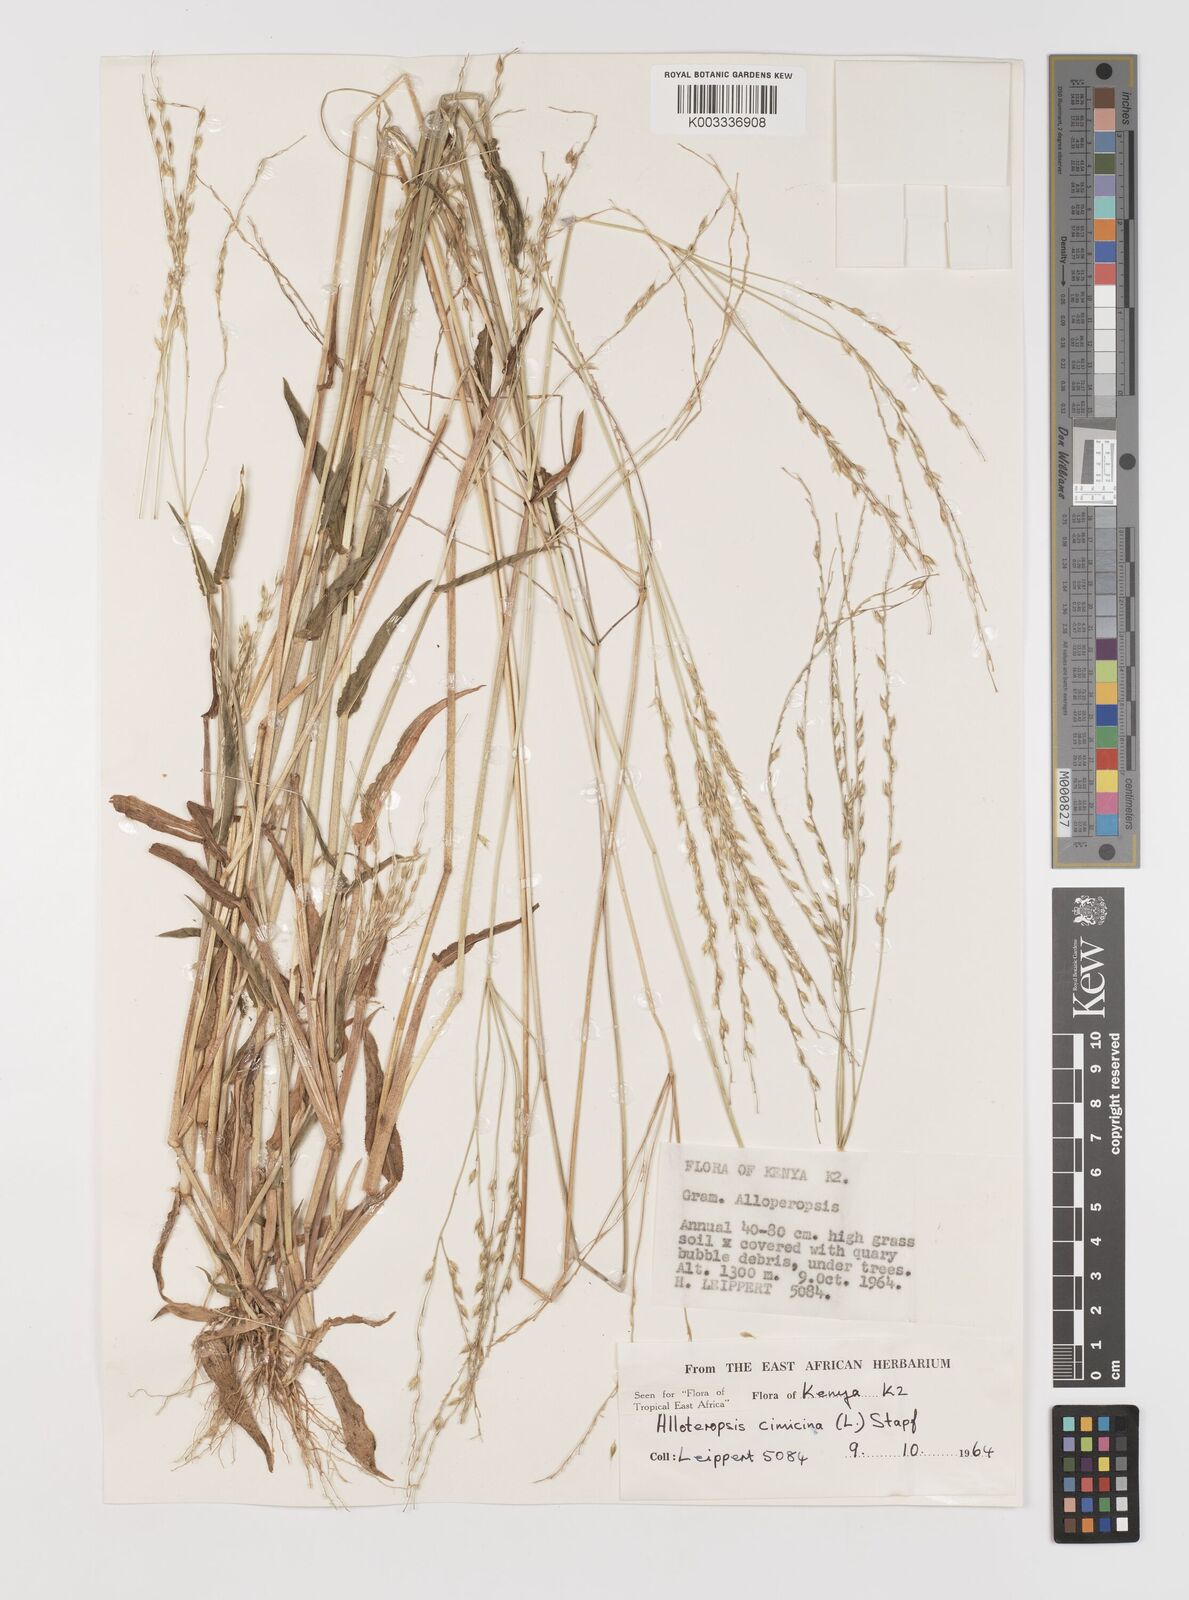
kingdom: Plantae
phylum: Tracheophyta
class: Liliopsida
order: Poales
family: Poaceae
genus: Alloteropsis
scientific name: Alloteropsis cimicina
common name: Summergrass
